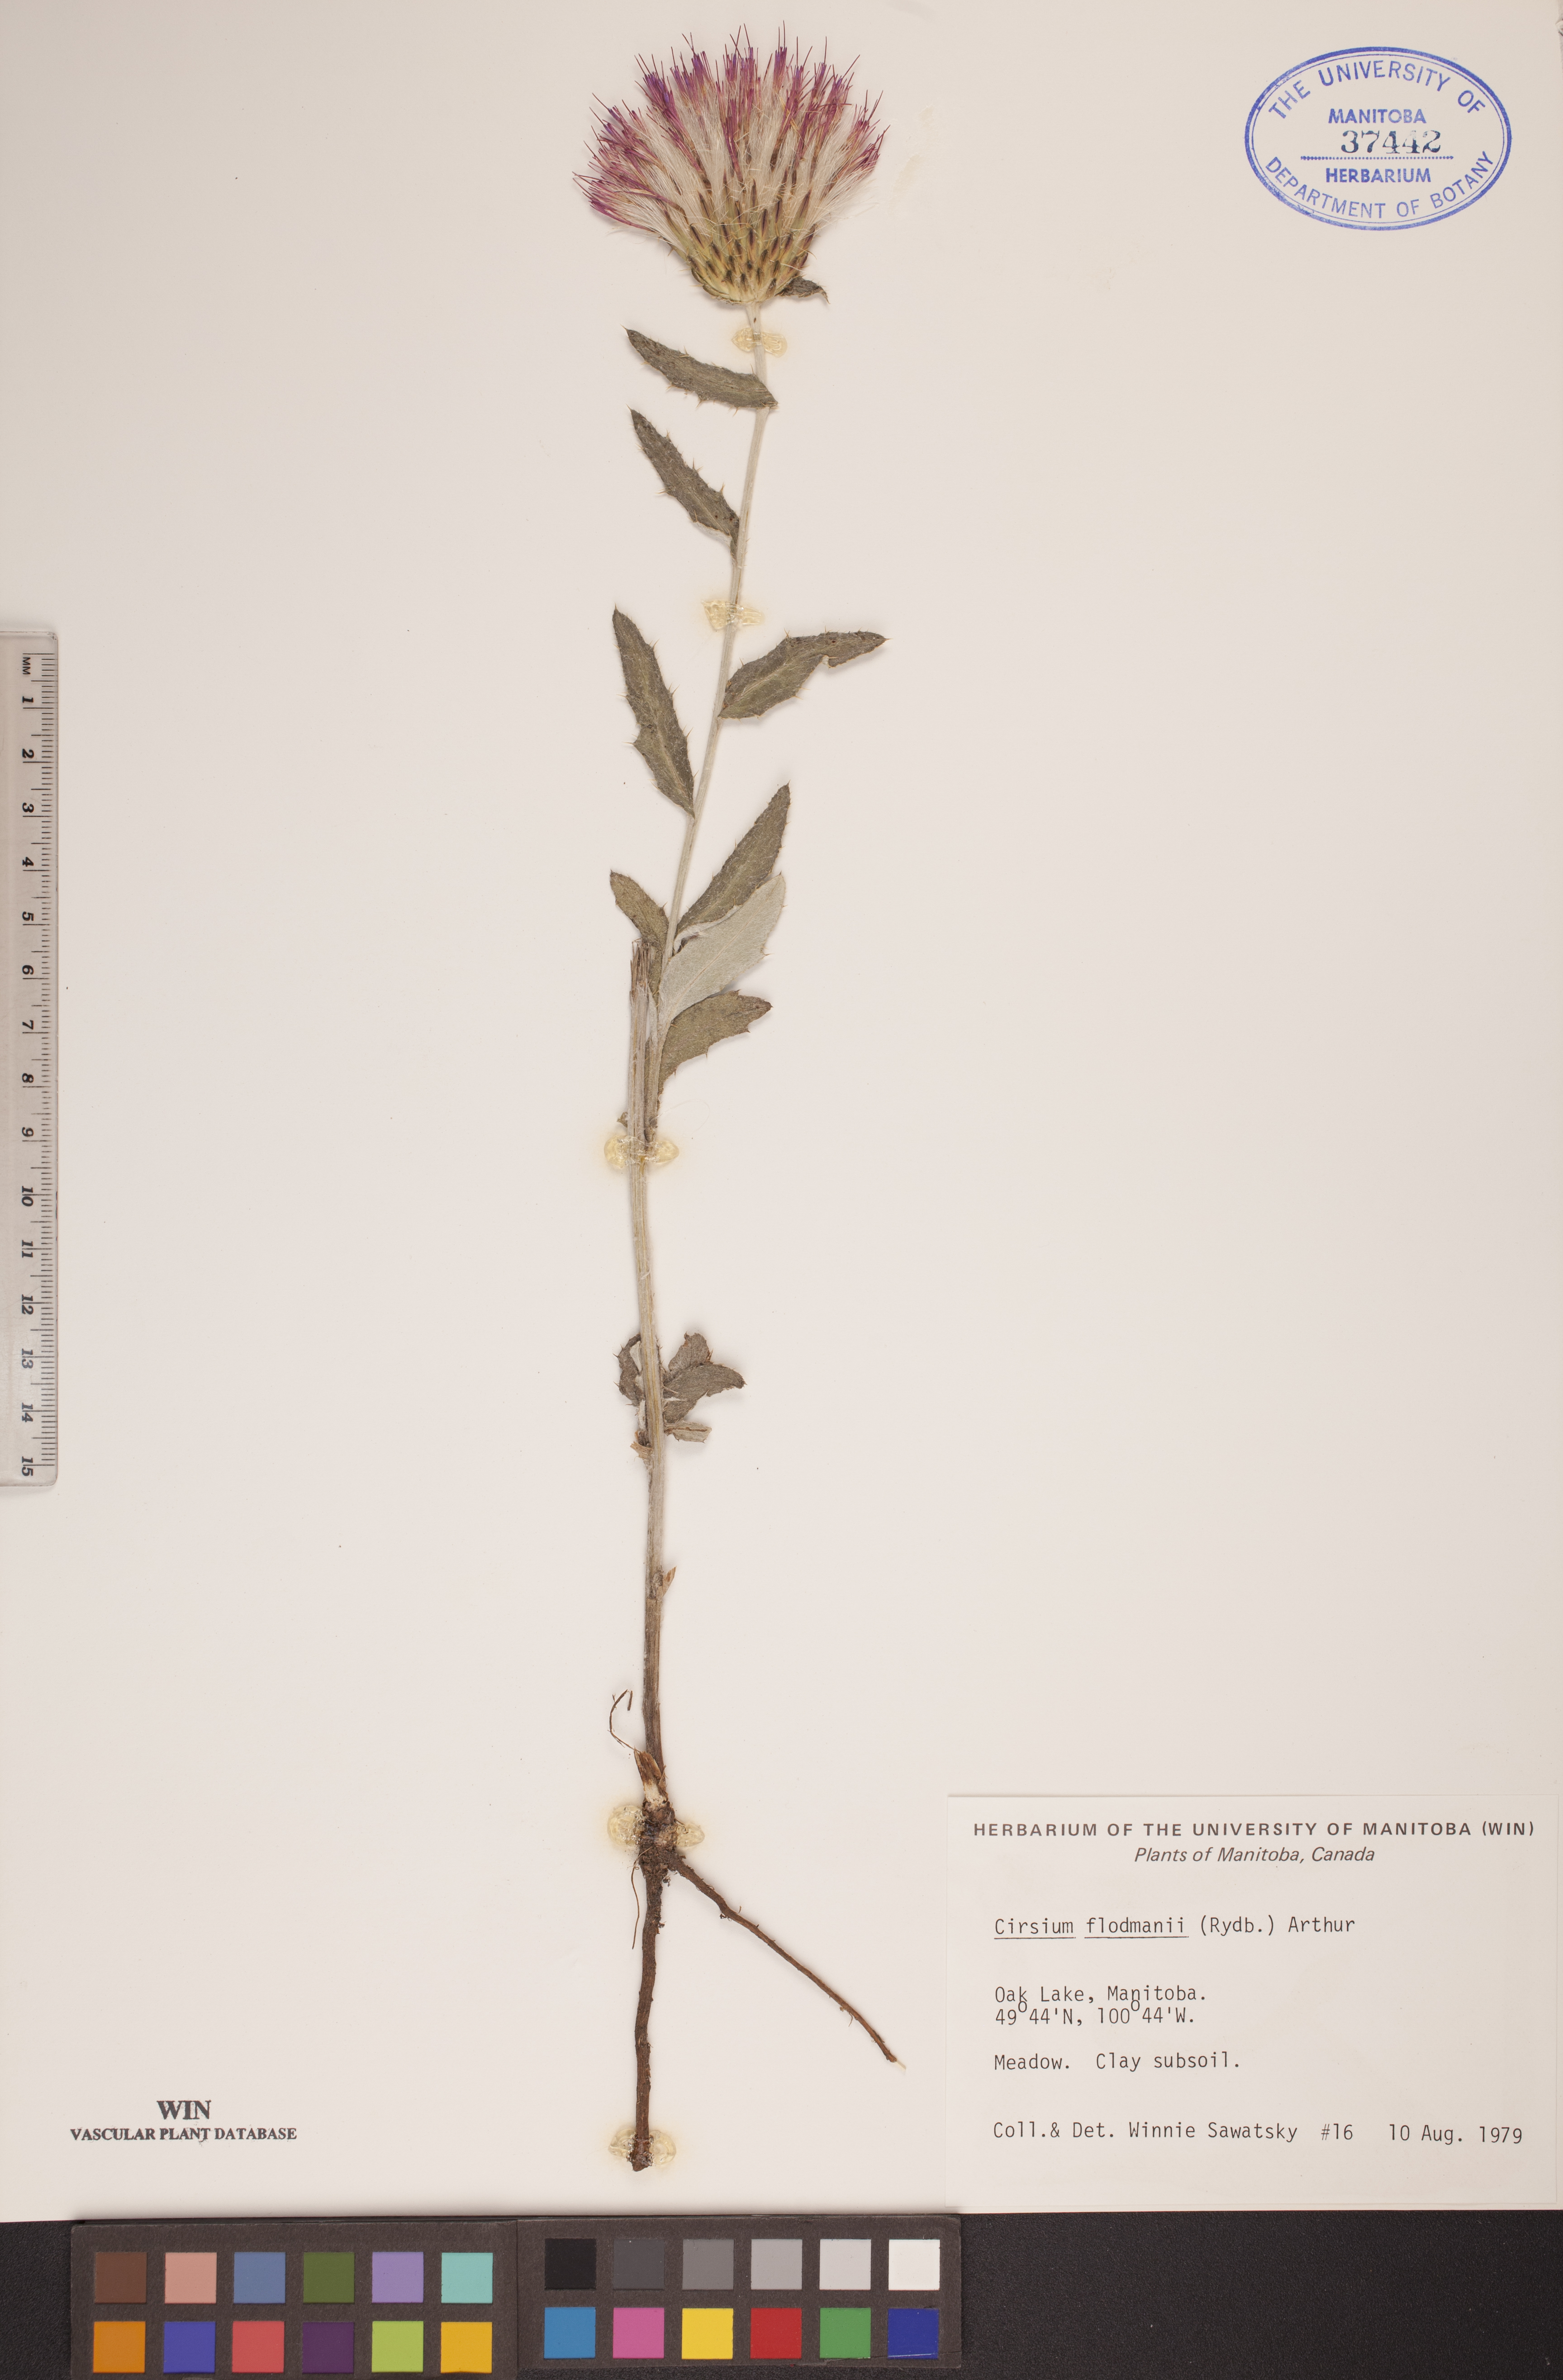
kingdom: Plantae
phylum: Tracheophyta
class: Magnoliopsida
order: Asterales
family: Asteraceae
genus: Cirsium
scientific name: Cirsium flodmanii
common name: Flodman's thistle
